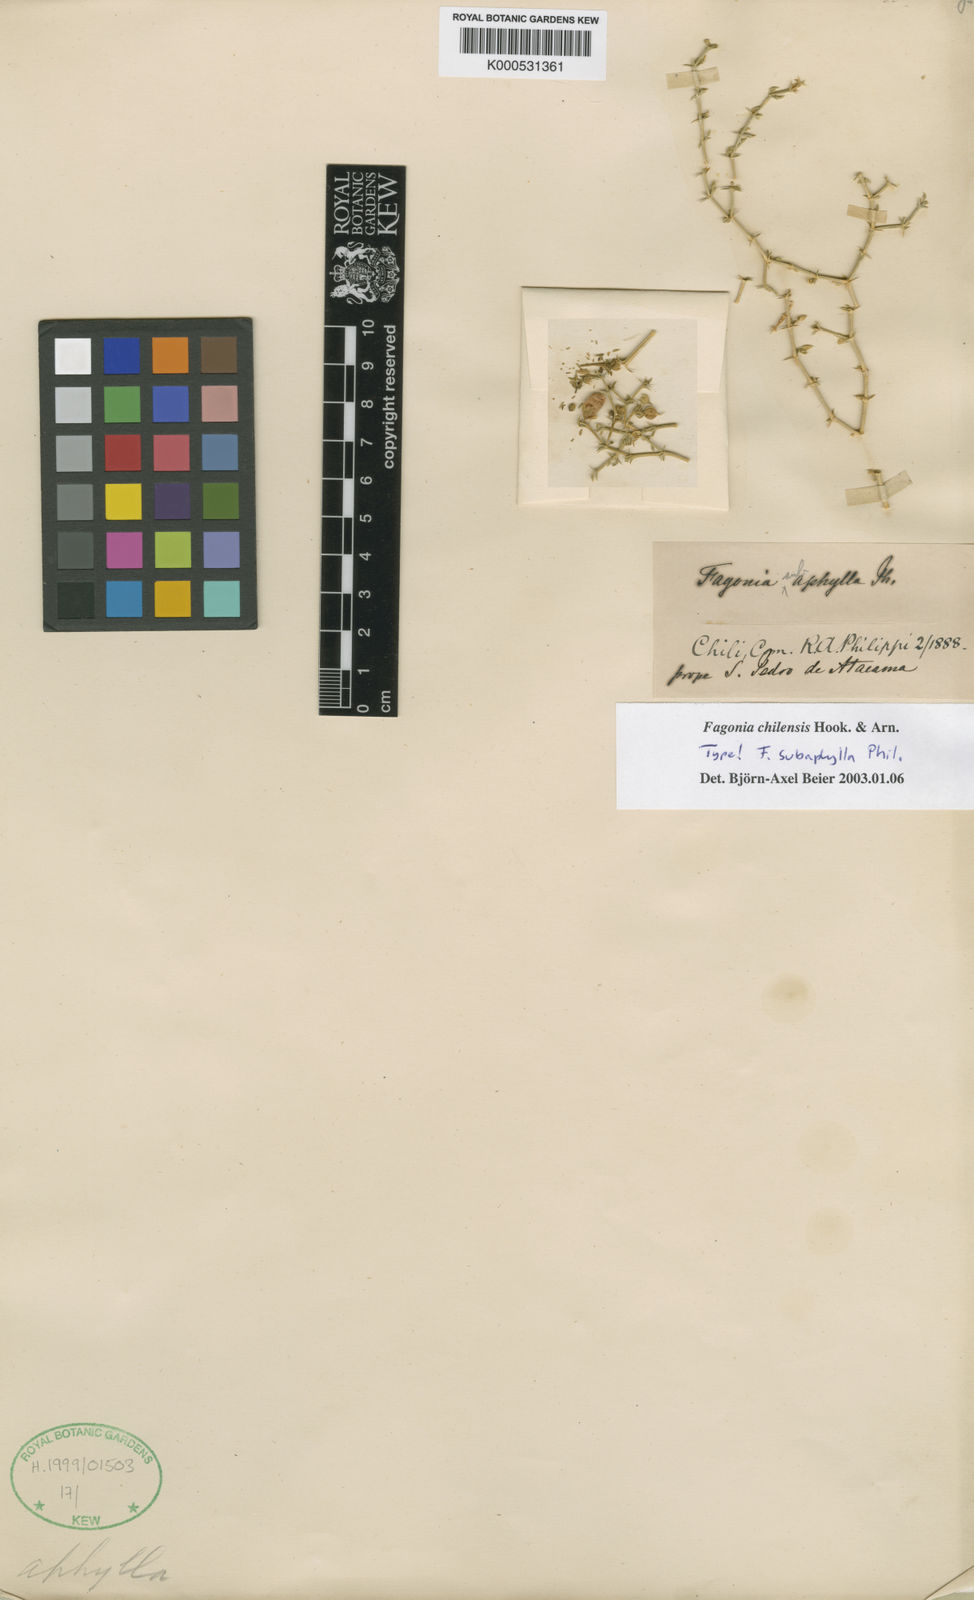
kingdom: Plantae
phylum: Tracheophyta
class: Magnoliopsida
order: Zygophyllales
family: Zygophyllaceae
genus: Fagonia
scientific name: Fagonia chilensis
